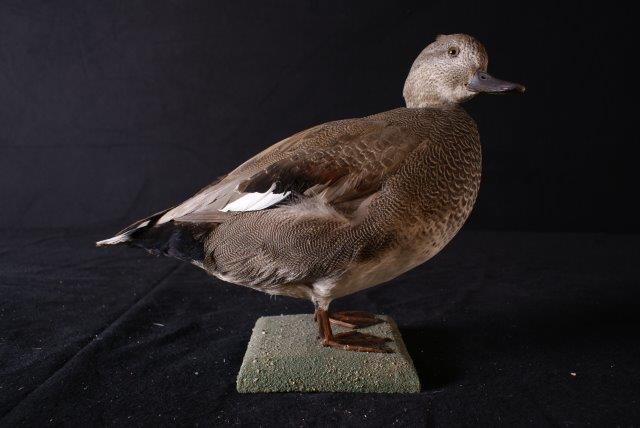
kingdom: Animalia
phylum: Chordata
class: Aves
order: Anseriformes
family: Anatidae
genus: Mareca
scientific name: Mareca strepera
